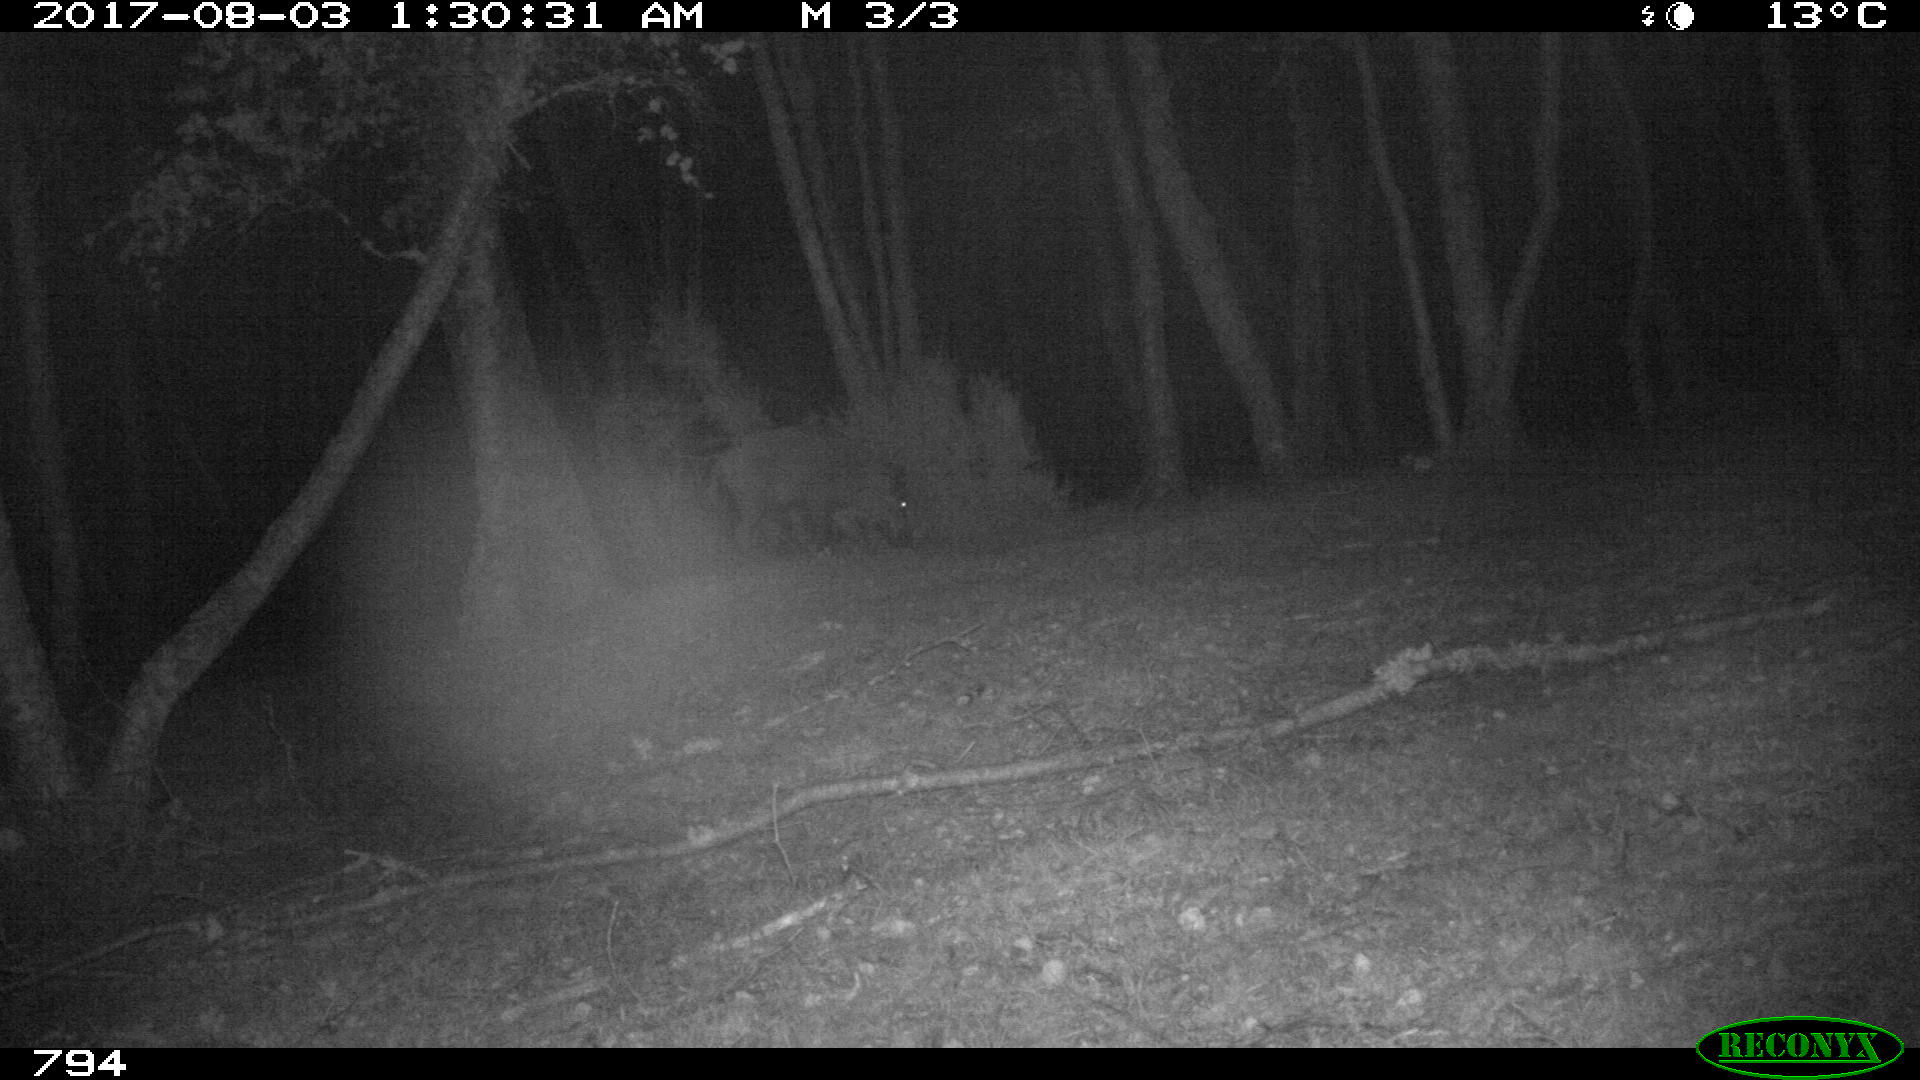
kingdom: Animalia
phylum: Chordata
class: Mammalia
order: Artiodactyla
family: Suidae
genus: Sus
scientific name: Sus scrofa
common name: Wild boar
